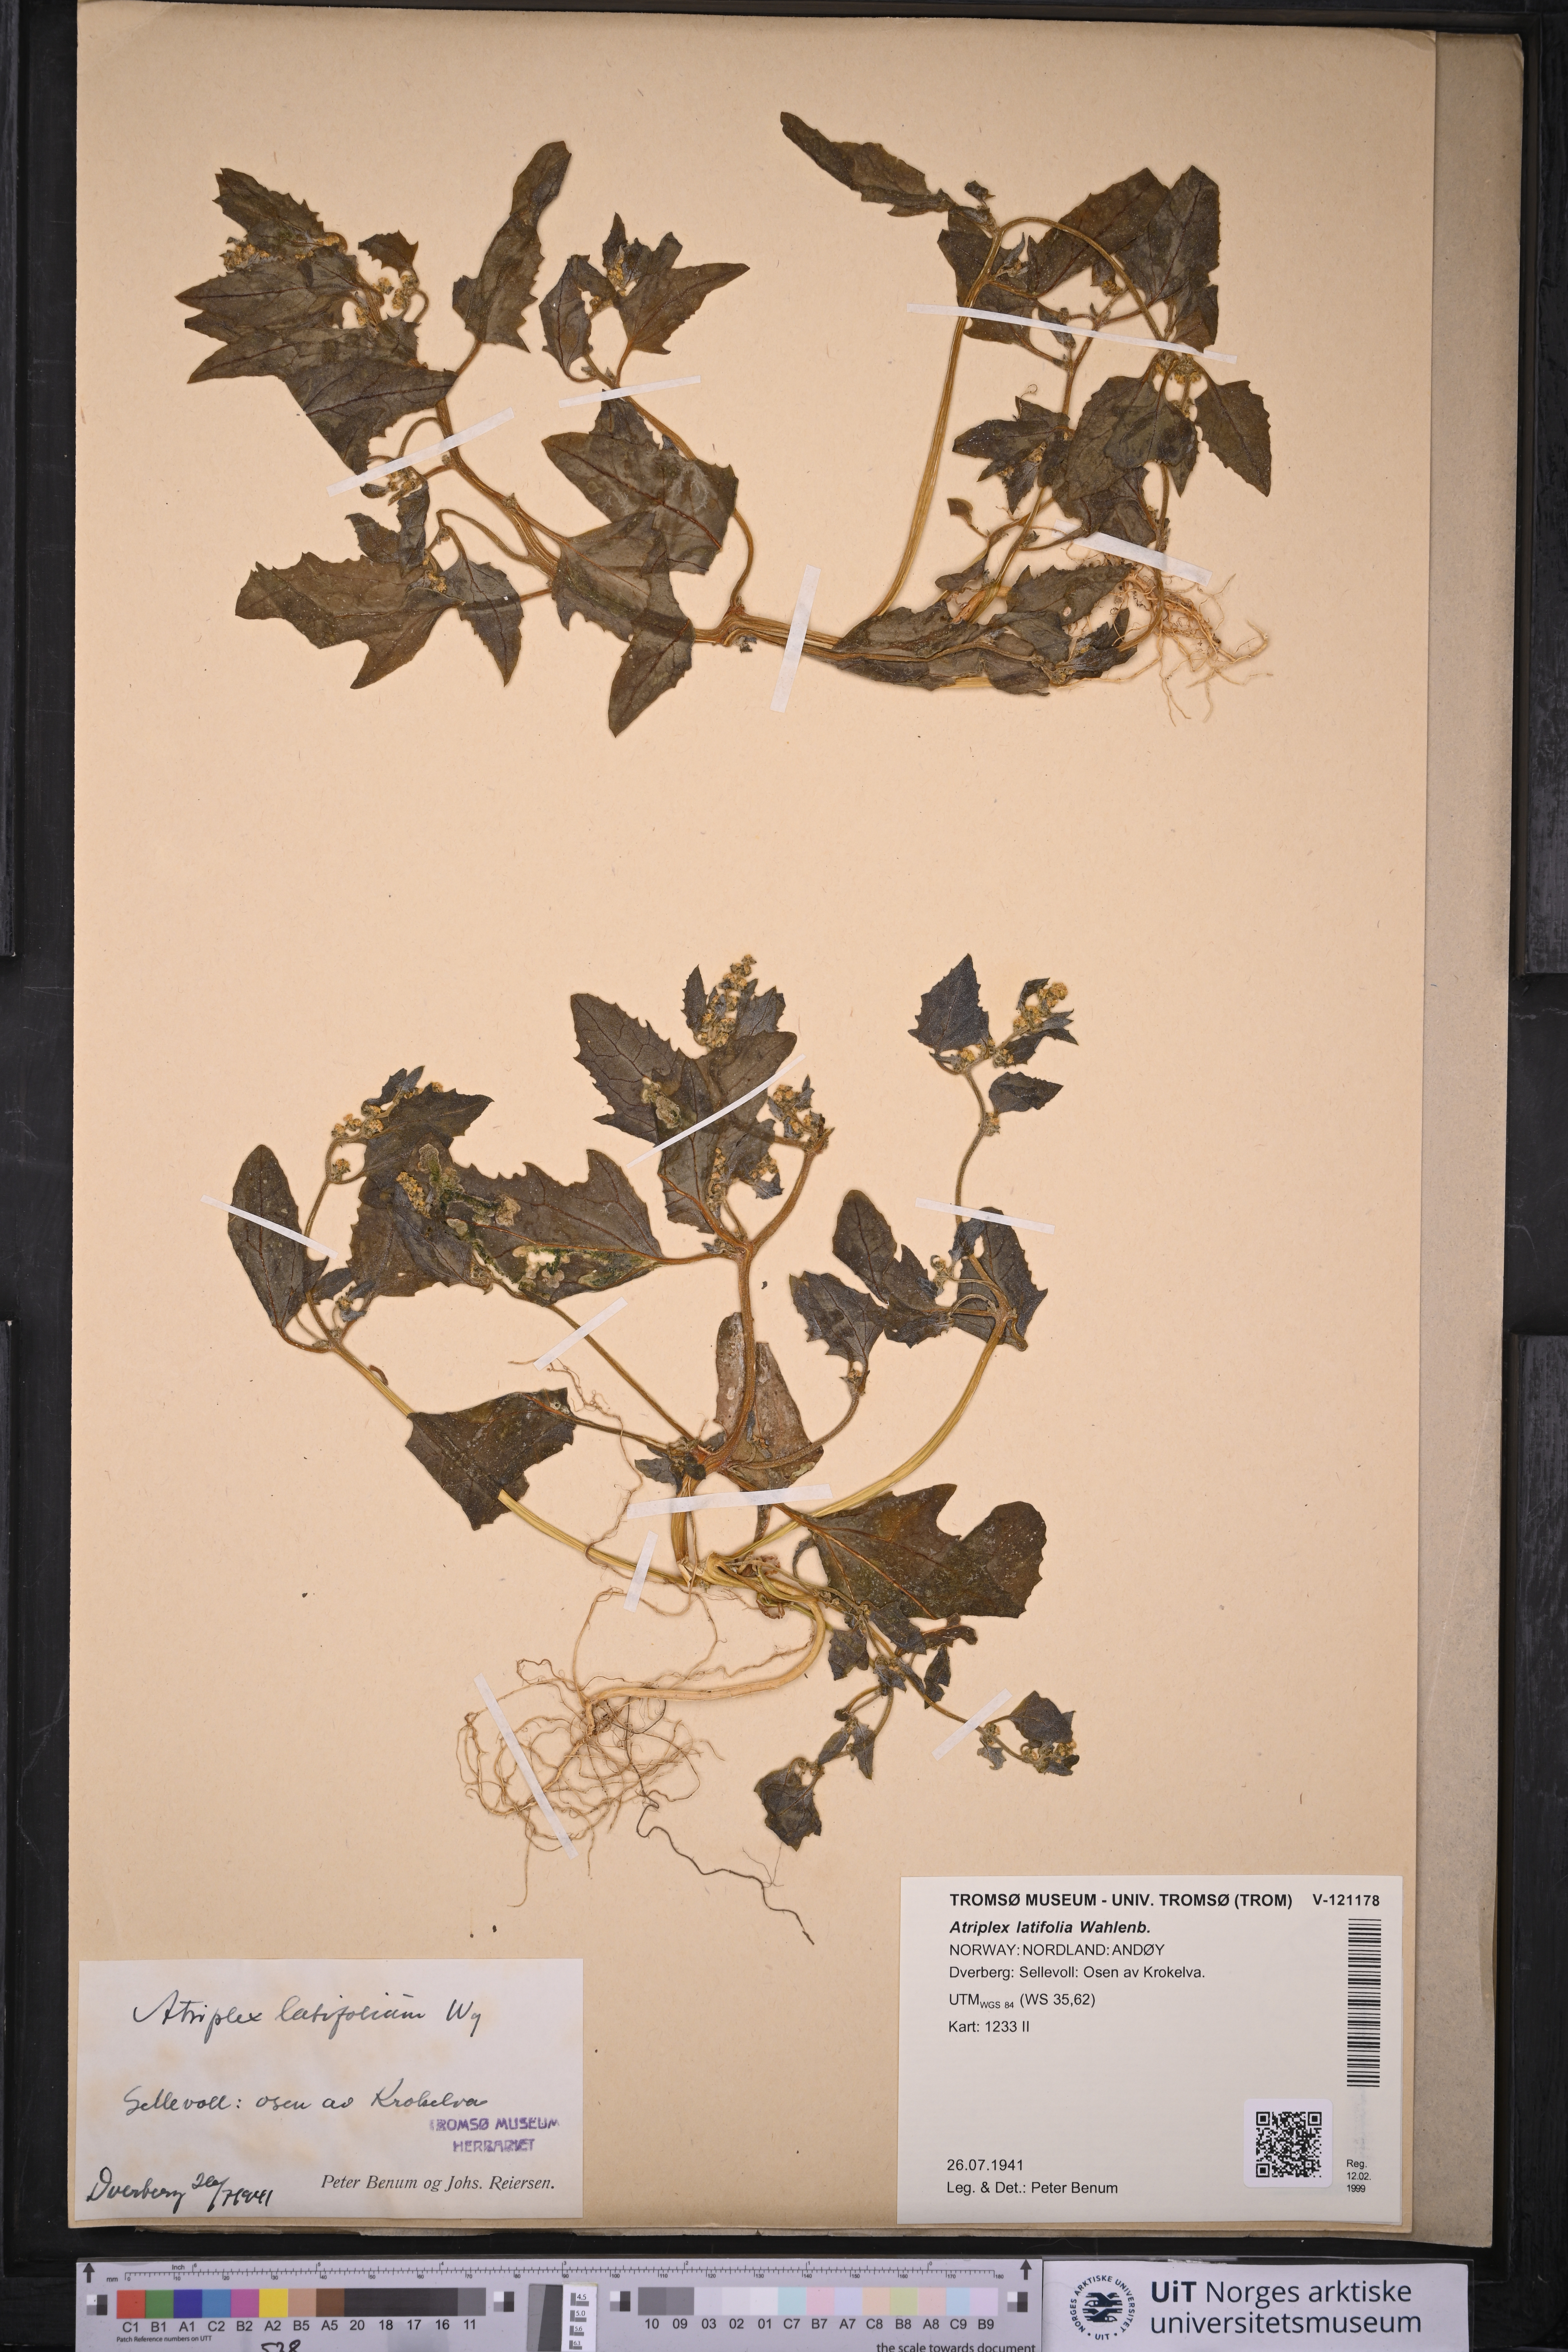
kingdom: Plantae
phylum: Tracheophyta
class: Magnoliopsida
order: Caryophyllales
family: Amaranthaceae
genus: Atriplex
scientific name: Atriplex prostrata
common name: Spear-leaved orache
